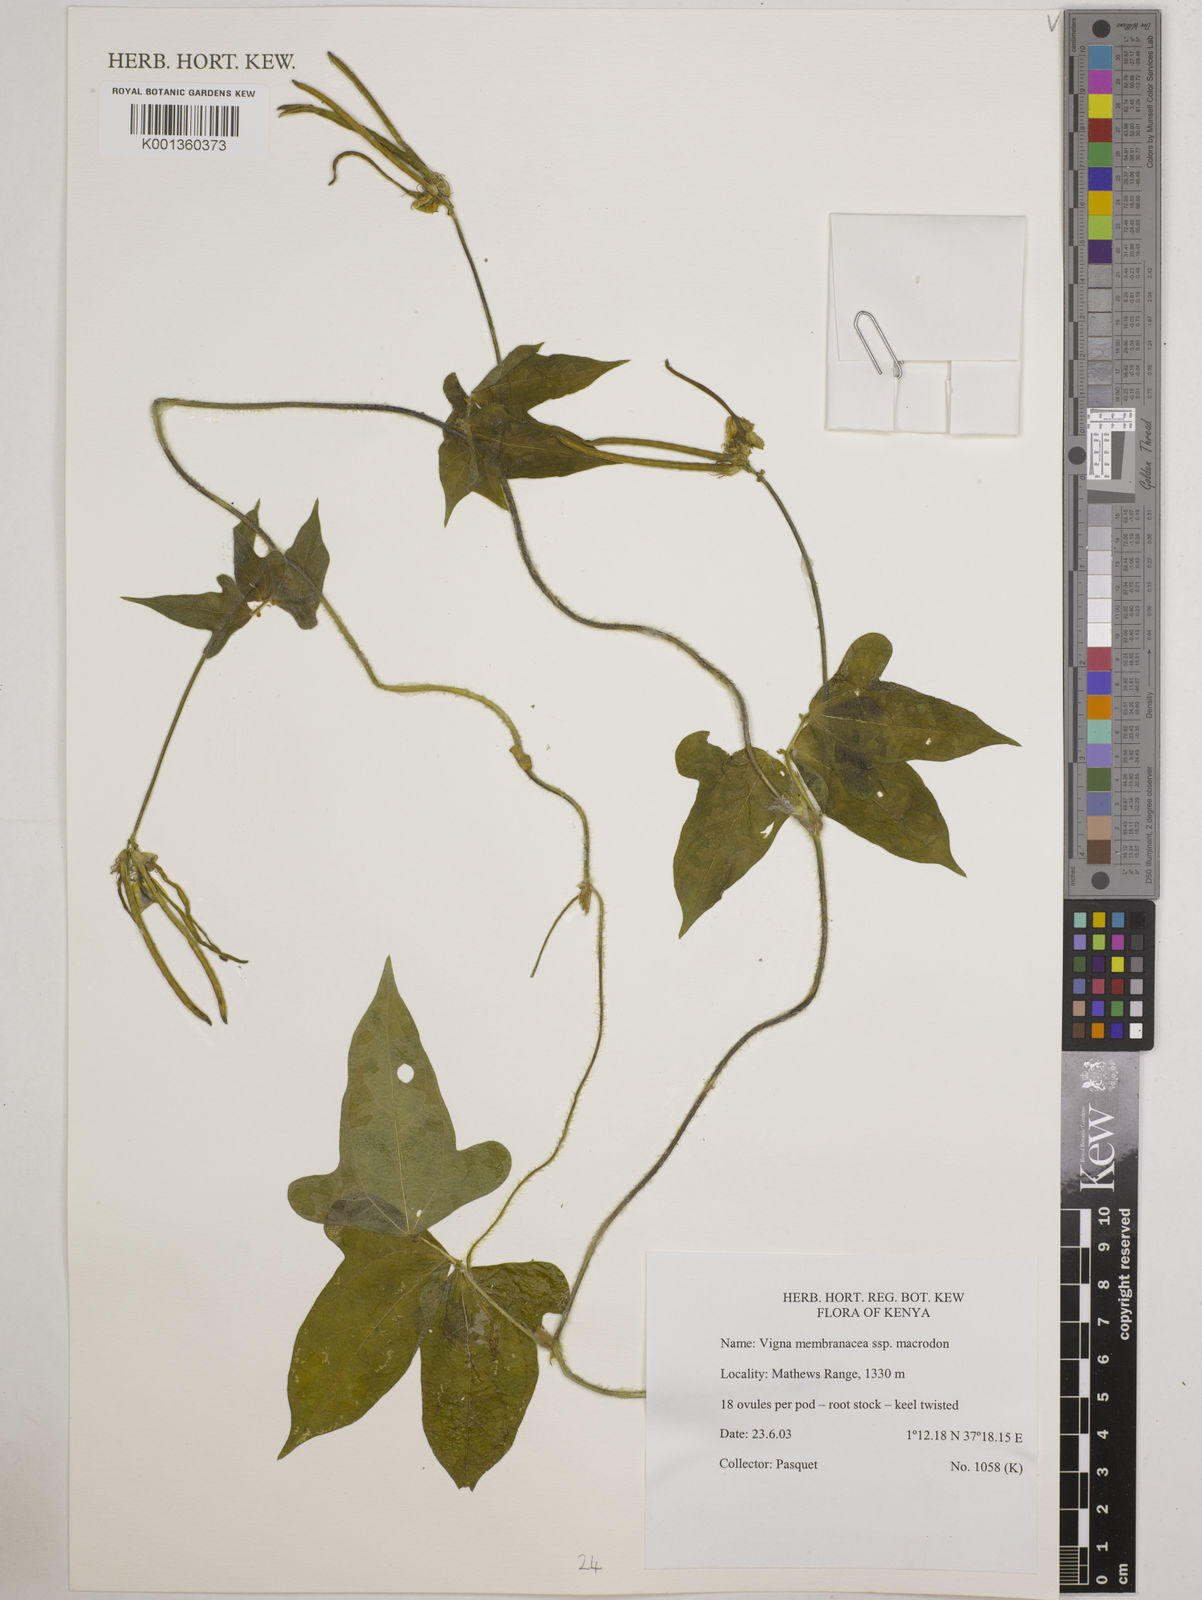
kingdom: Plantae
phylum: Tracheophyta
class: Magnoliopsida
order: Fabales
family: Fabaceae
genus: Vigna
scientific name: Vigna
